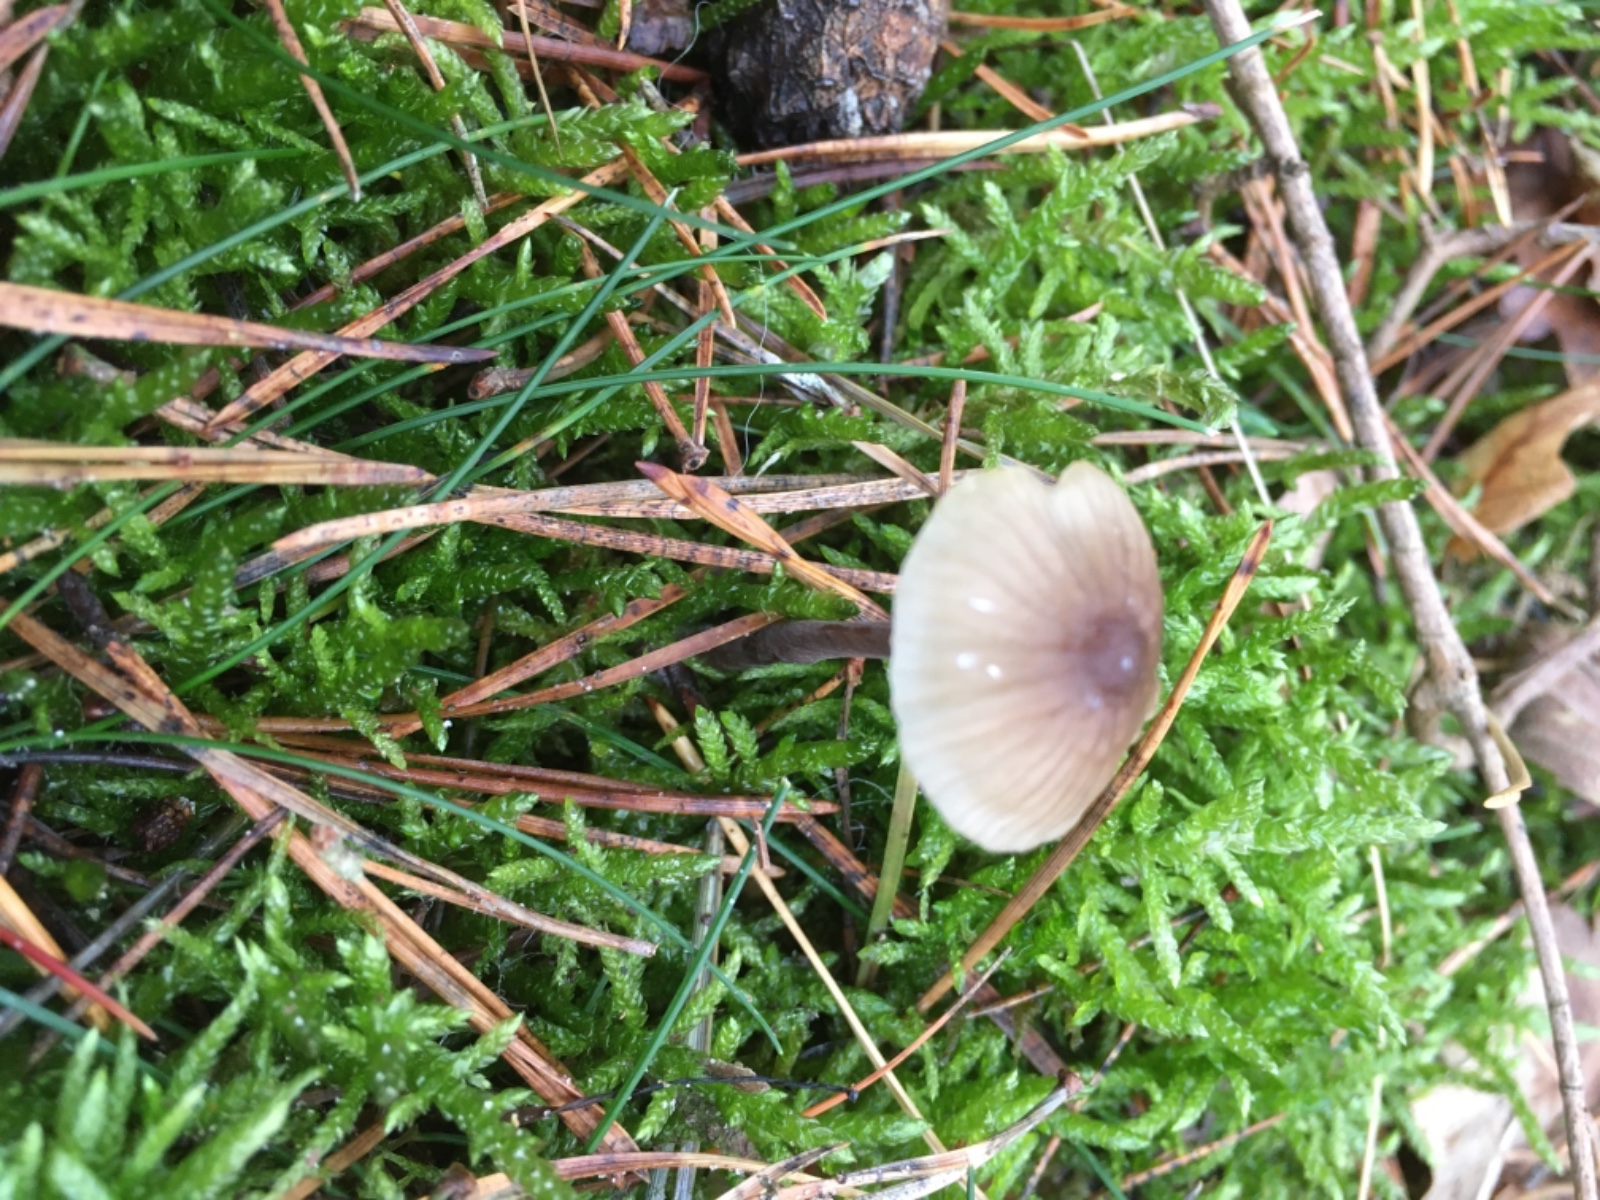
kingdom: Fungi
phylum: Basidiomycota
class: Agaricomycetes
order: Agaricales
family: Mycenaceae
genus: Mycena
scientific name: Mycena galopus
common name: hvidmælket huesvamp
